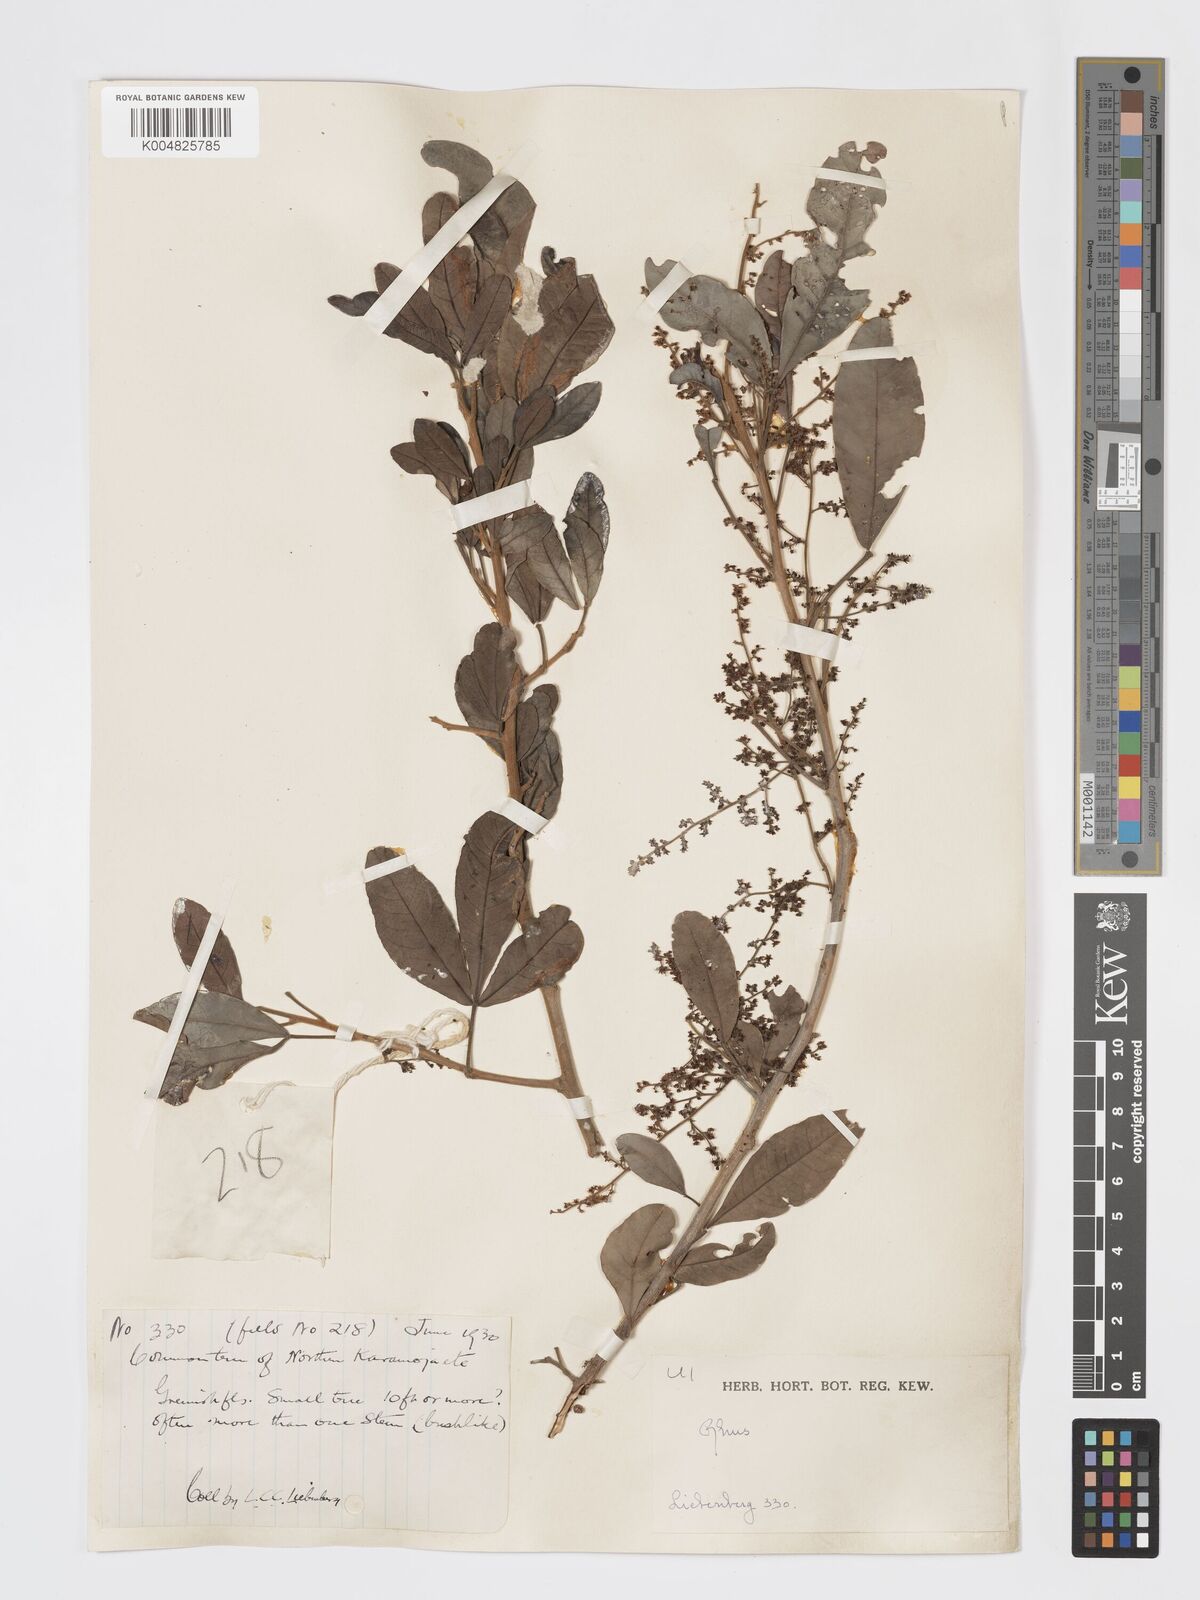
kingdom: Plantae
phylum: Tracheophyta
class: Magnoliopsida
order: Sapindales
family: Anacardiaceae
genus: Searsia
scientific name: Searsia natalensis
